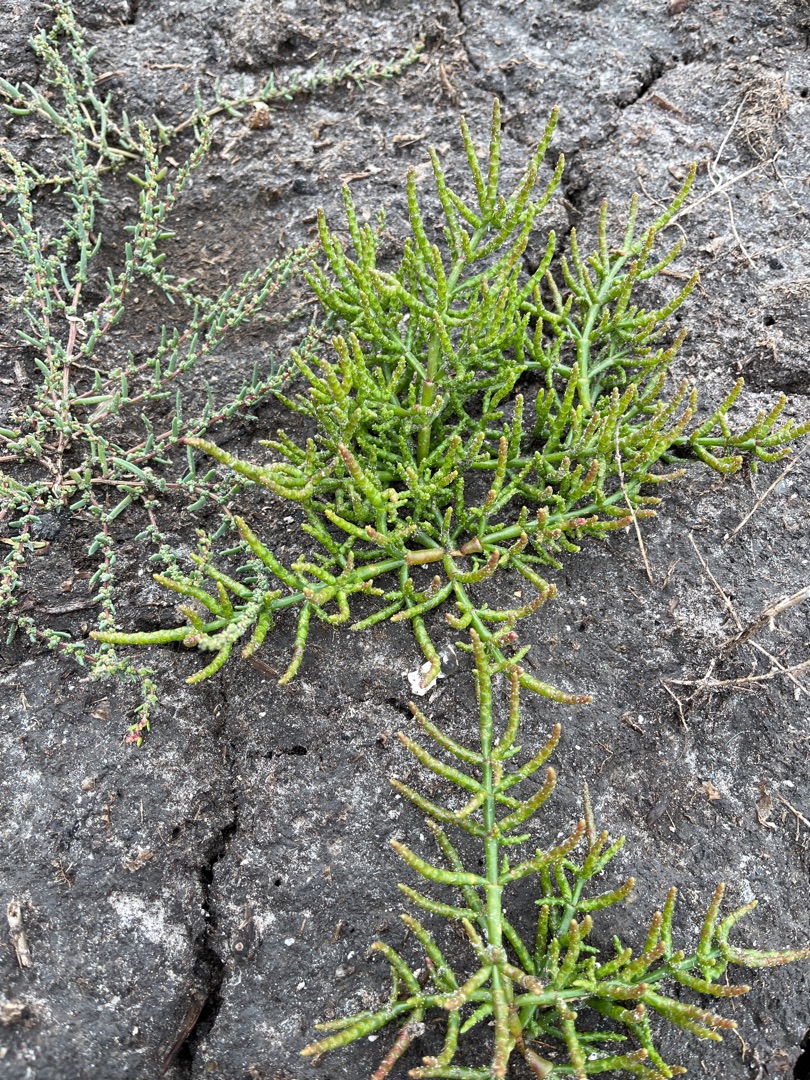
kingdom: Plantae
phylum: Tracheophyta
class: Magnoliopsida
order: Caryophyllales
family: Amaranthaceae
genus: Salicornia
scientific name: Salicornia europaea
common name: Almindelig salturt
